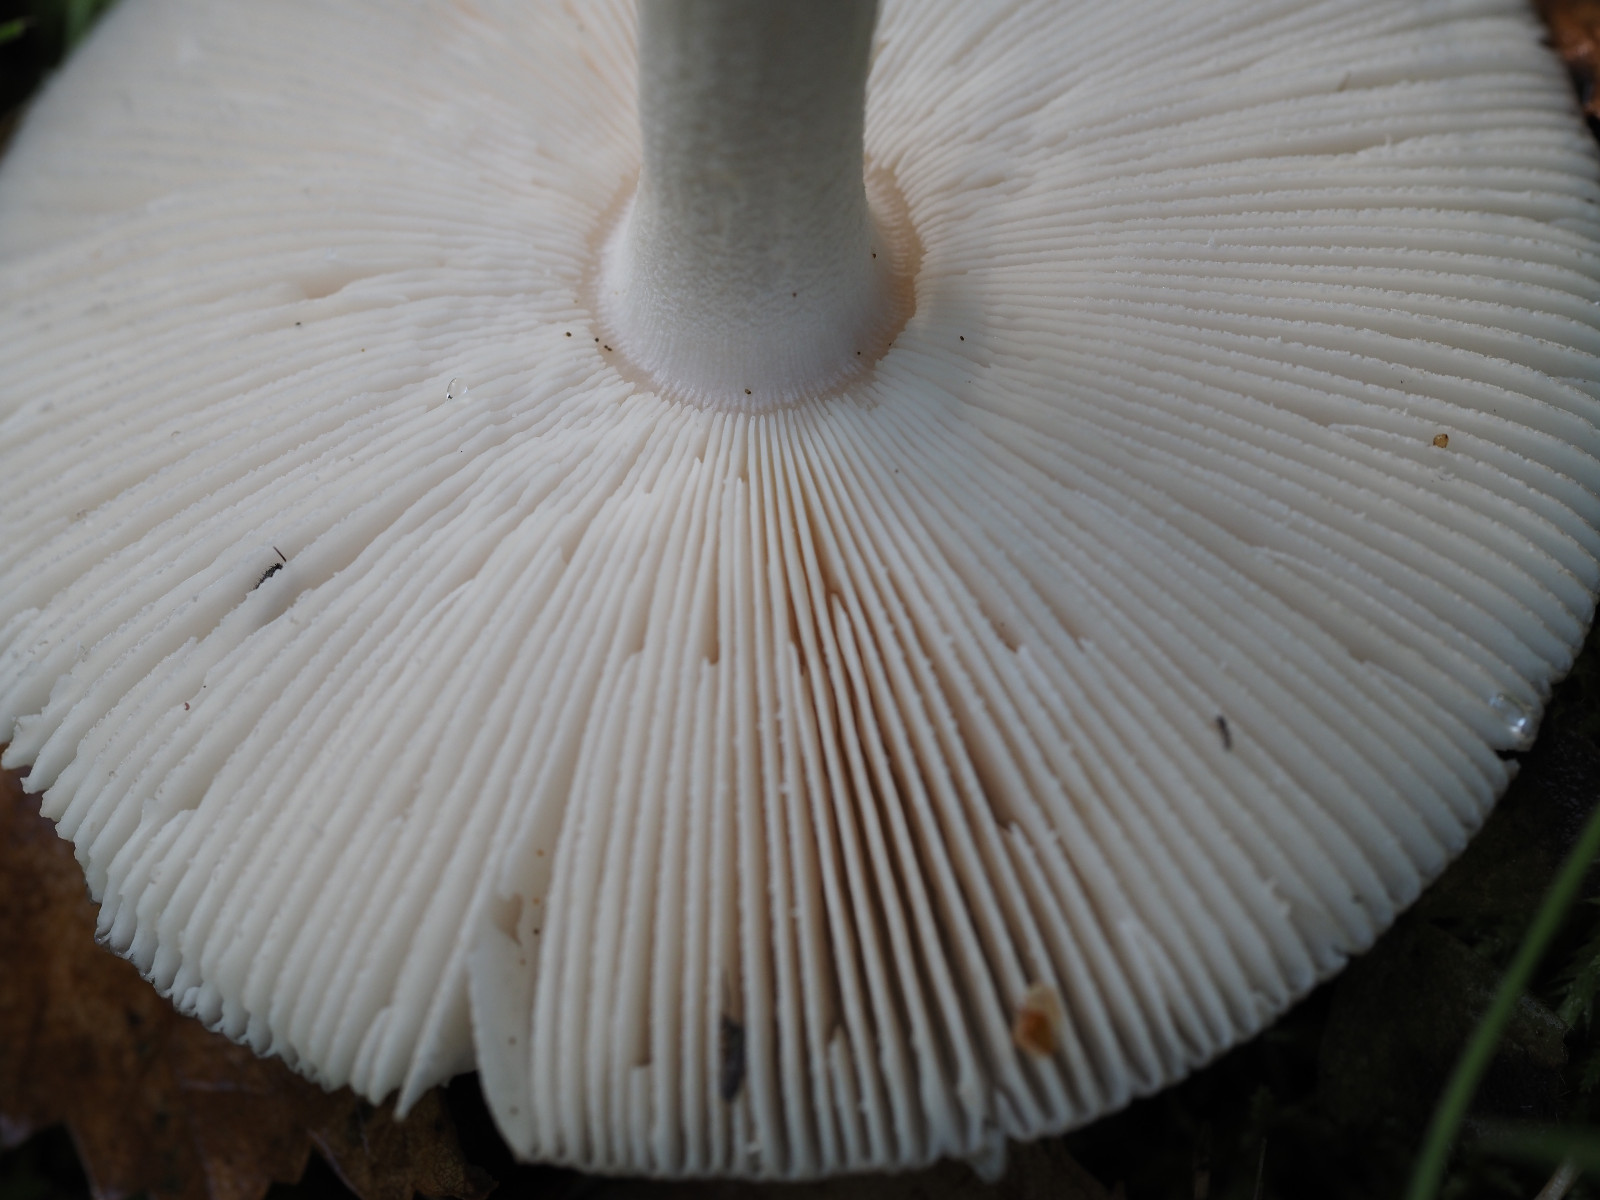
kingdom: Fungi
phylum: Basidiomycota
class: Agaricomycetes
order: Agaricales
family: Amanitaceae
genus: Amanita
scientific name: Amanita
